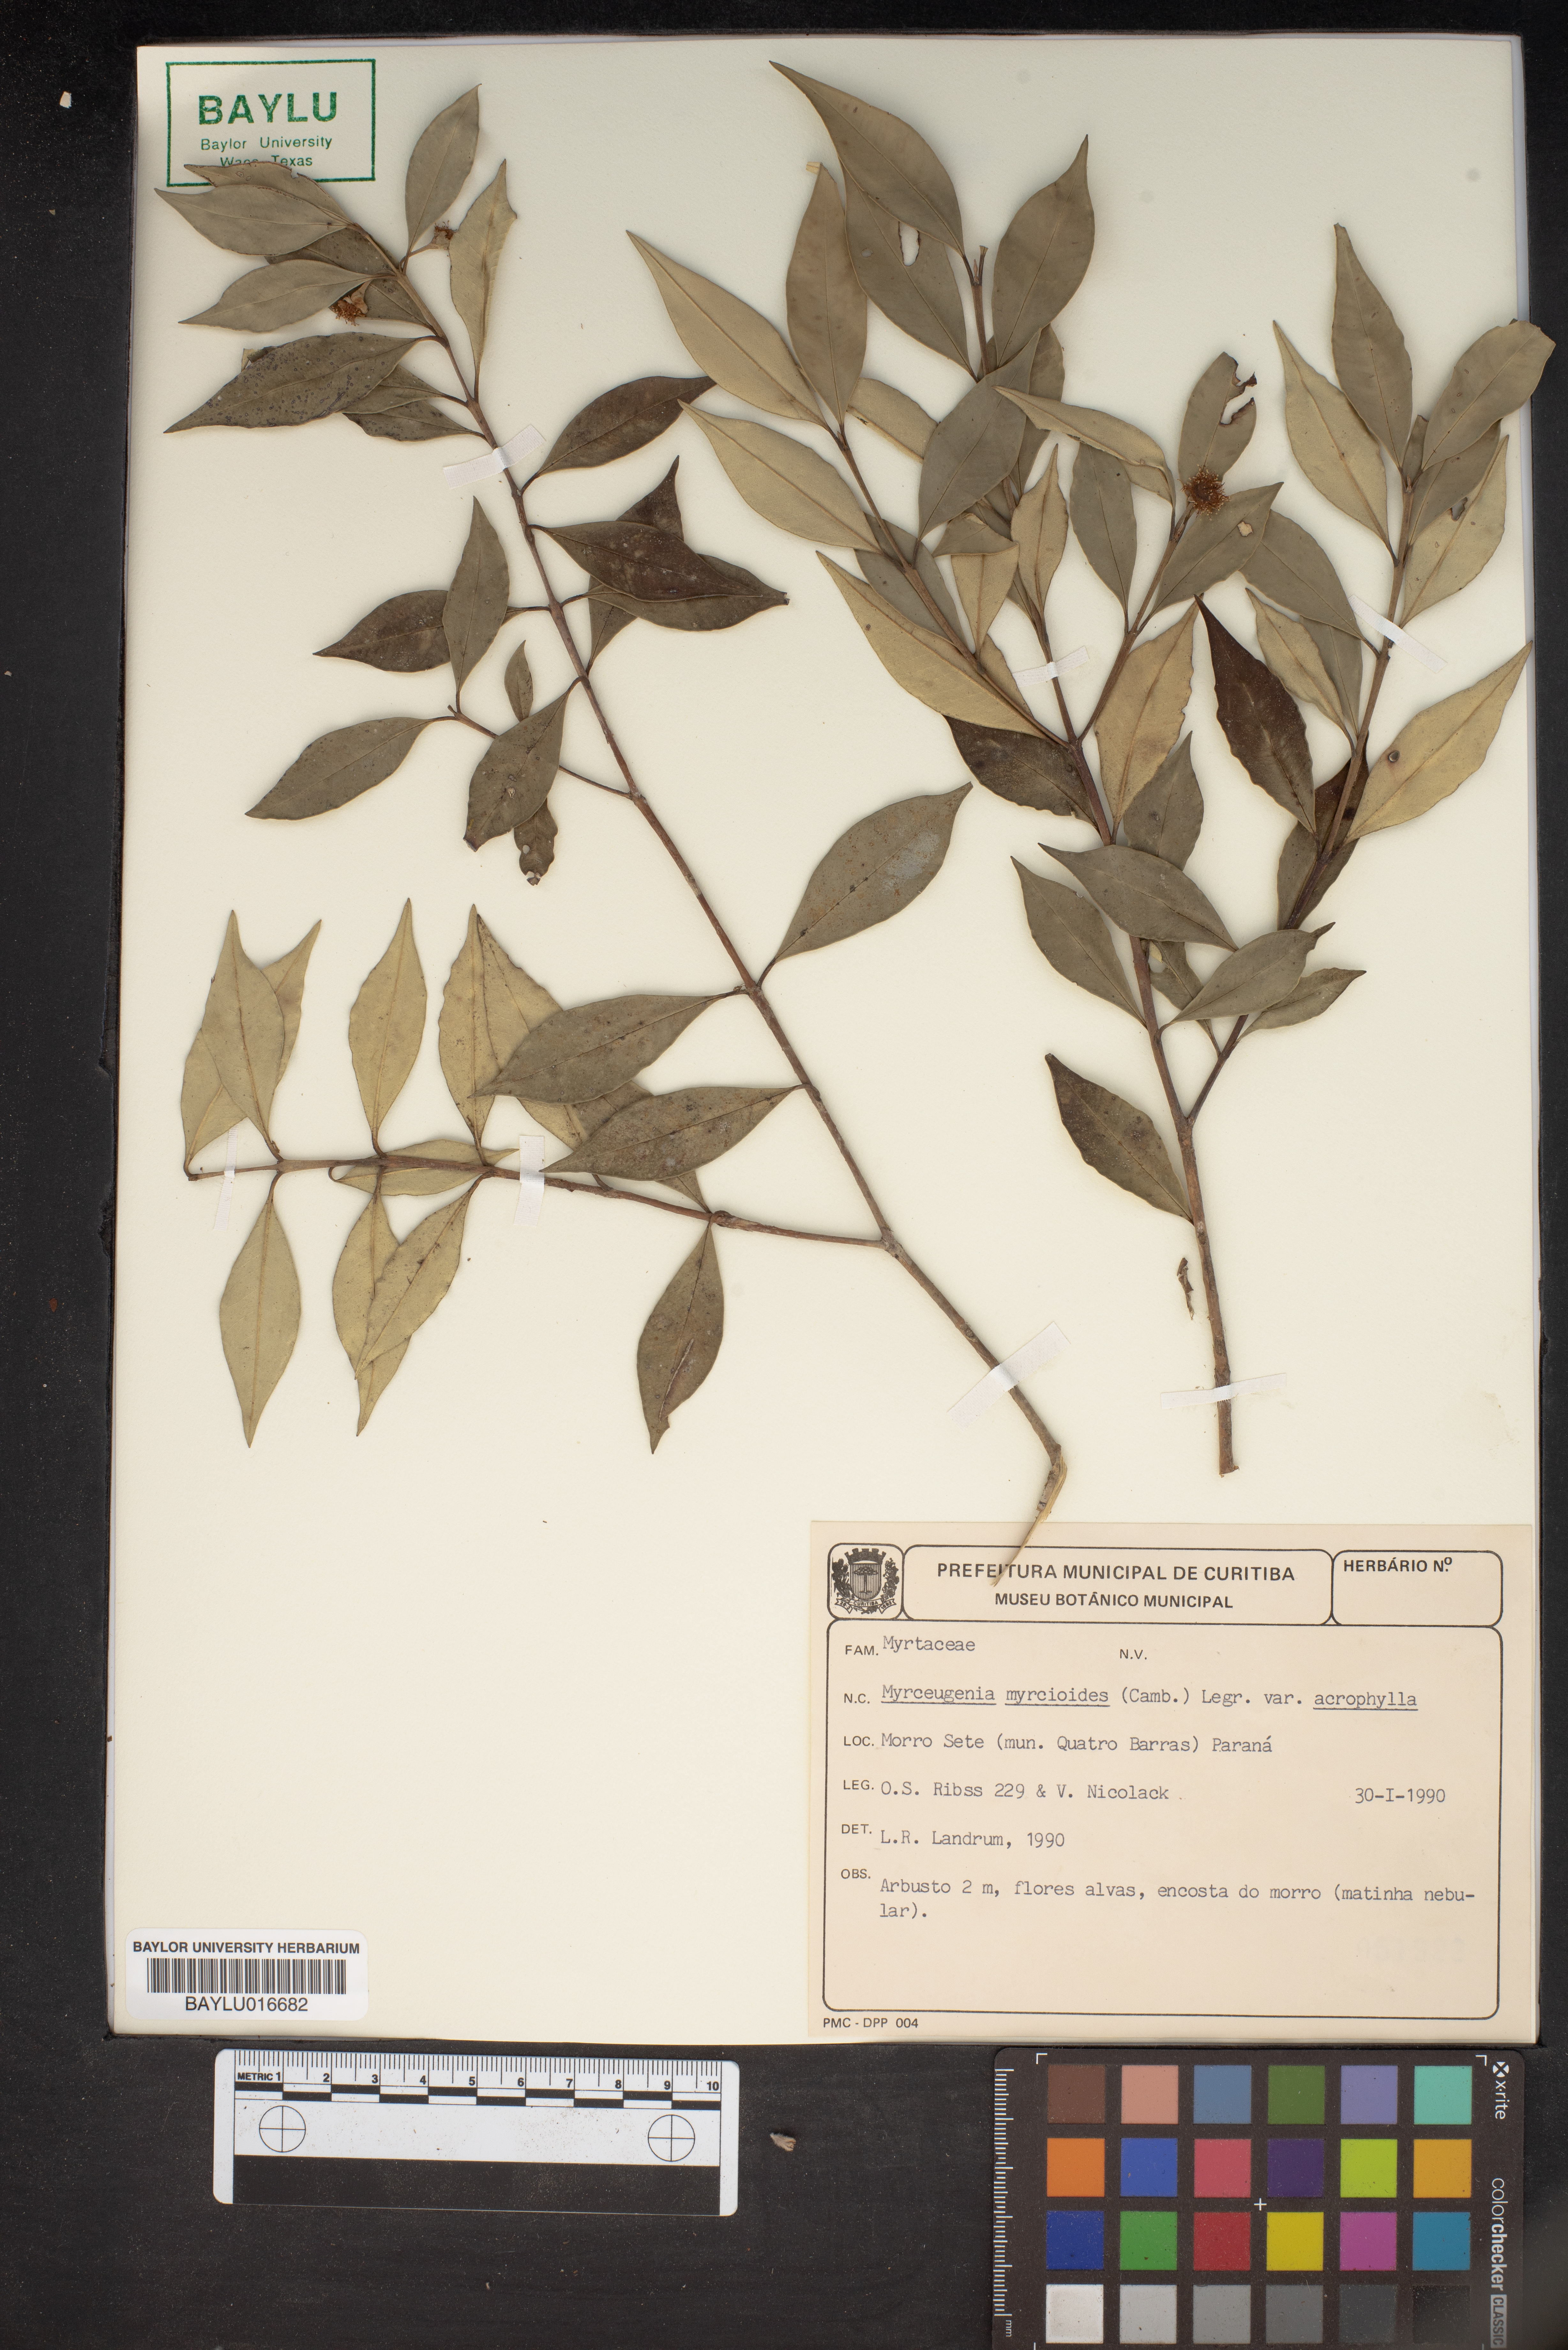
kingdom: Plantae
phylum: Tracheophyta
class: Magnoliopsida
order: Myrtales
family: Myrtaceae
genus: Myrceugenia
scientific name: Myrceugenia myrcoides
